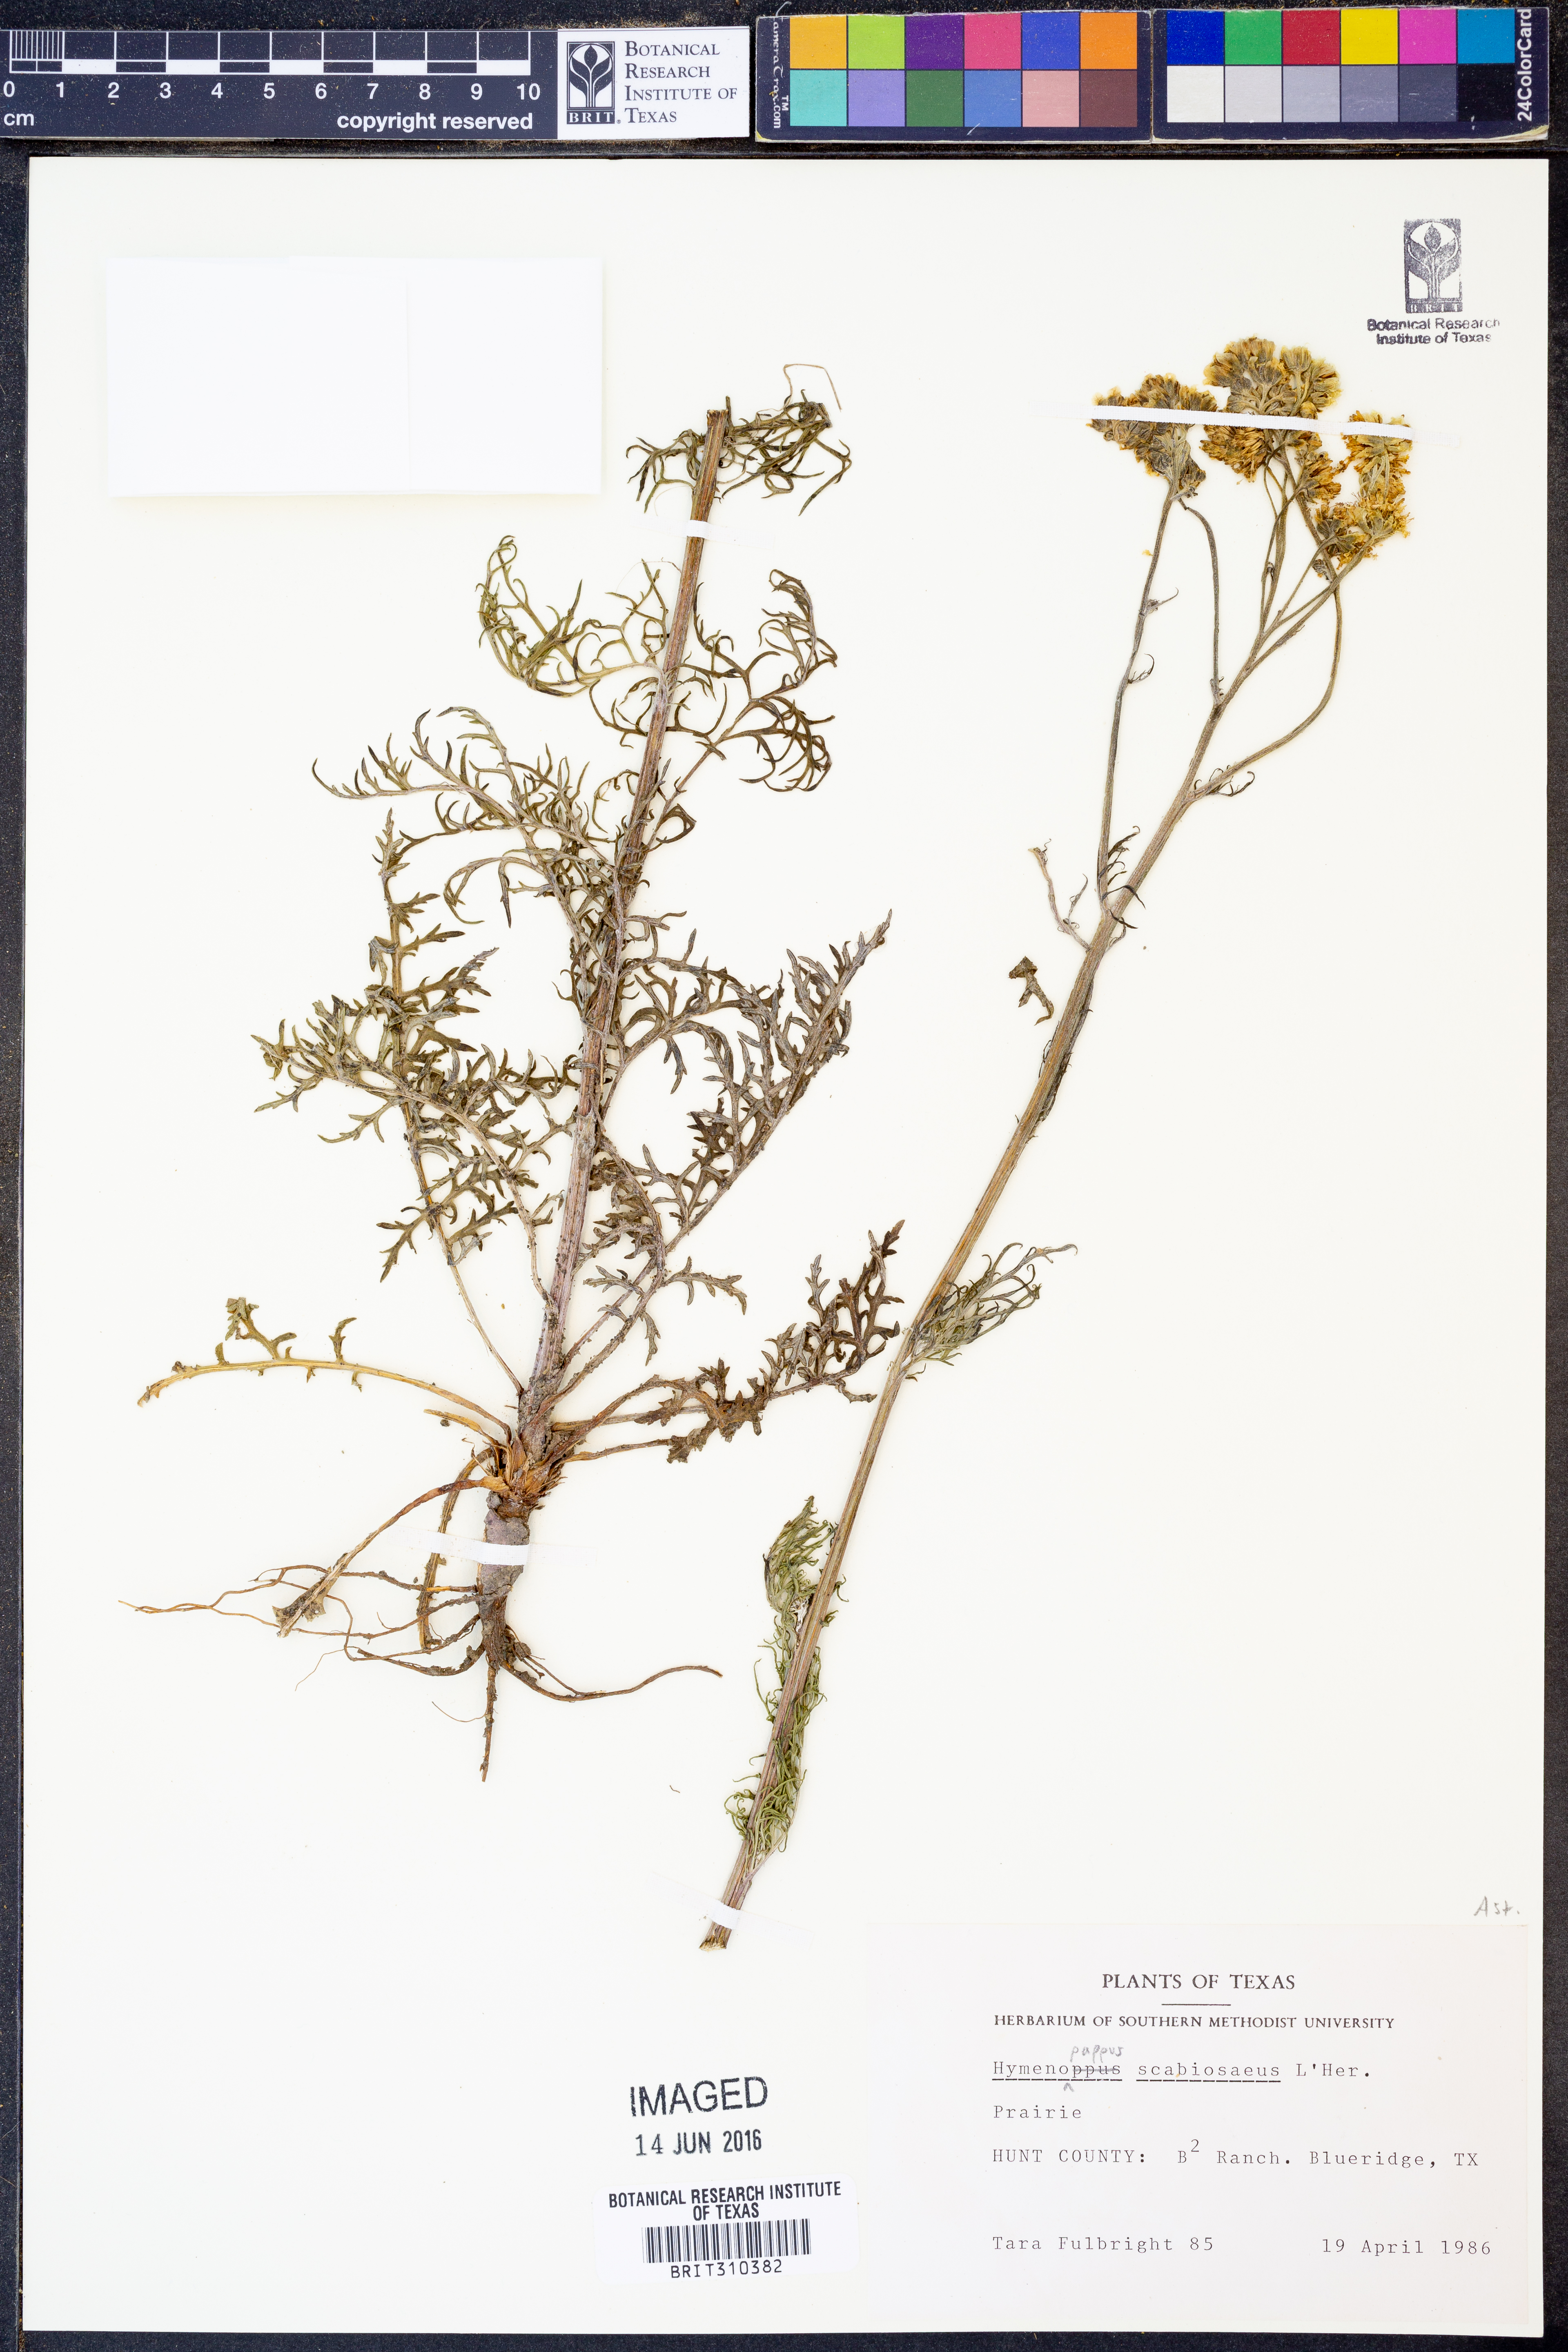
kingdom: Plantae
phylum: Tracheophyta
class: Magnoliopsida
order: Asterales
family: Asteraceae
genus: Hymenopappus
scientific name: Hymenopappus scabiosaeus
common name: Carolina woollywhite
